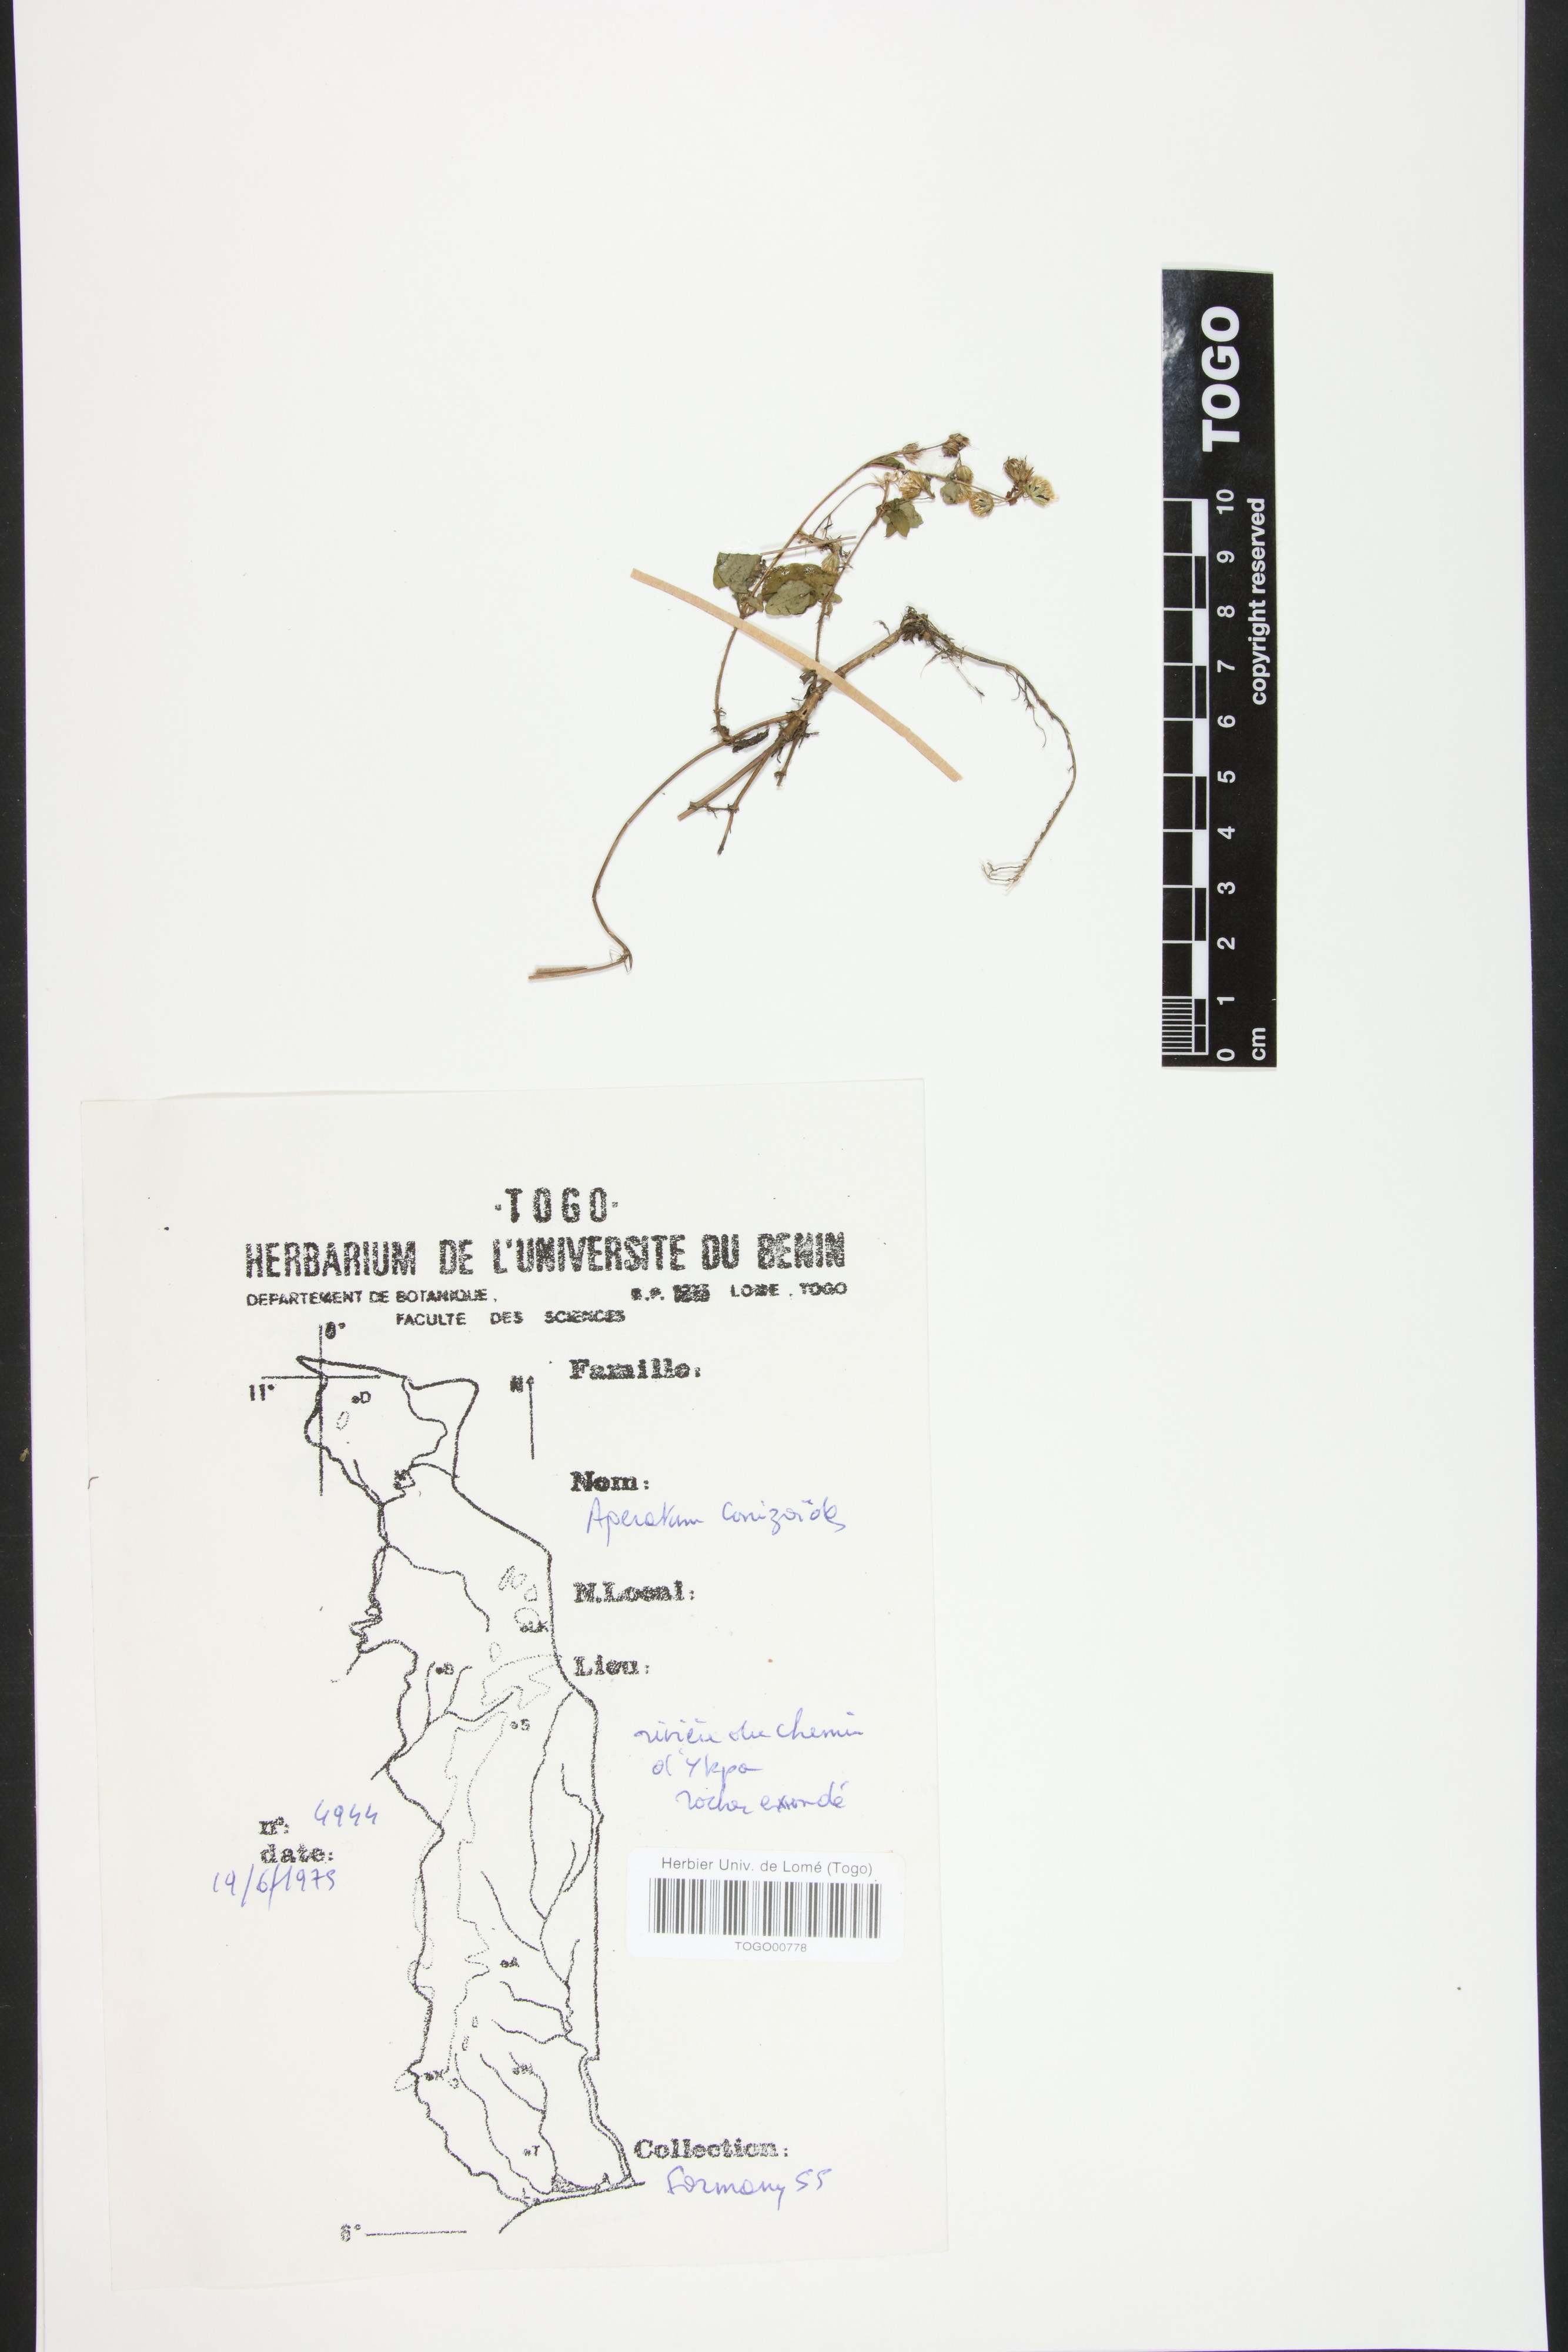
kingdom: Plantae
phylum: Tracheophyta
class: Magnoliopsida
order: Asterales
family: Asteraceae
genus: Ageratum
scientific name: Ageratum conyzoides
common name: Tropical whiteweed
